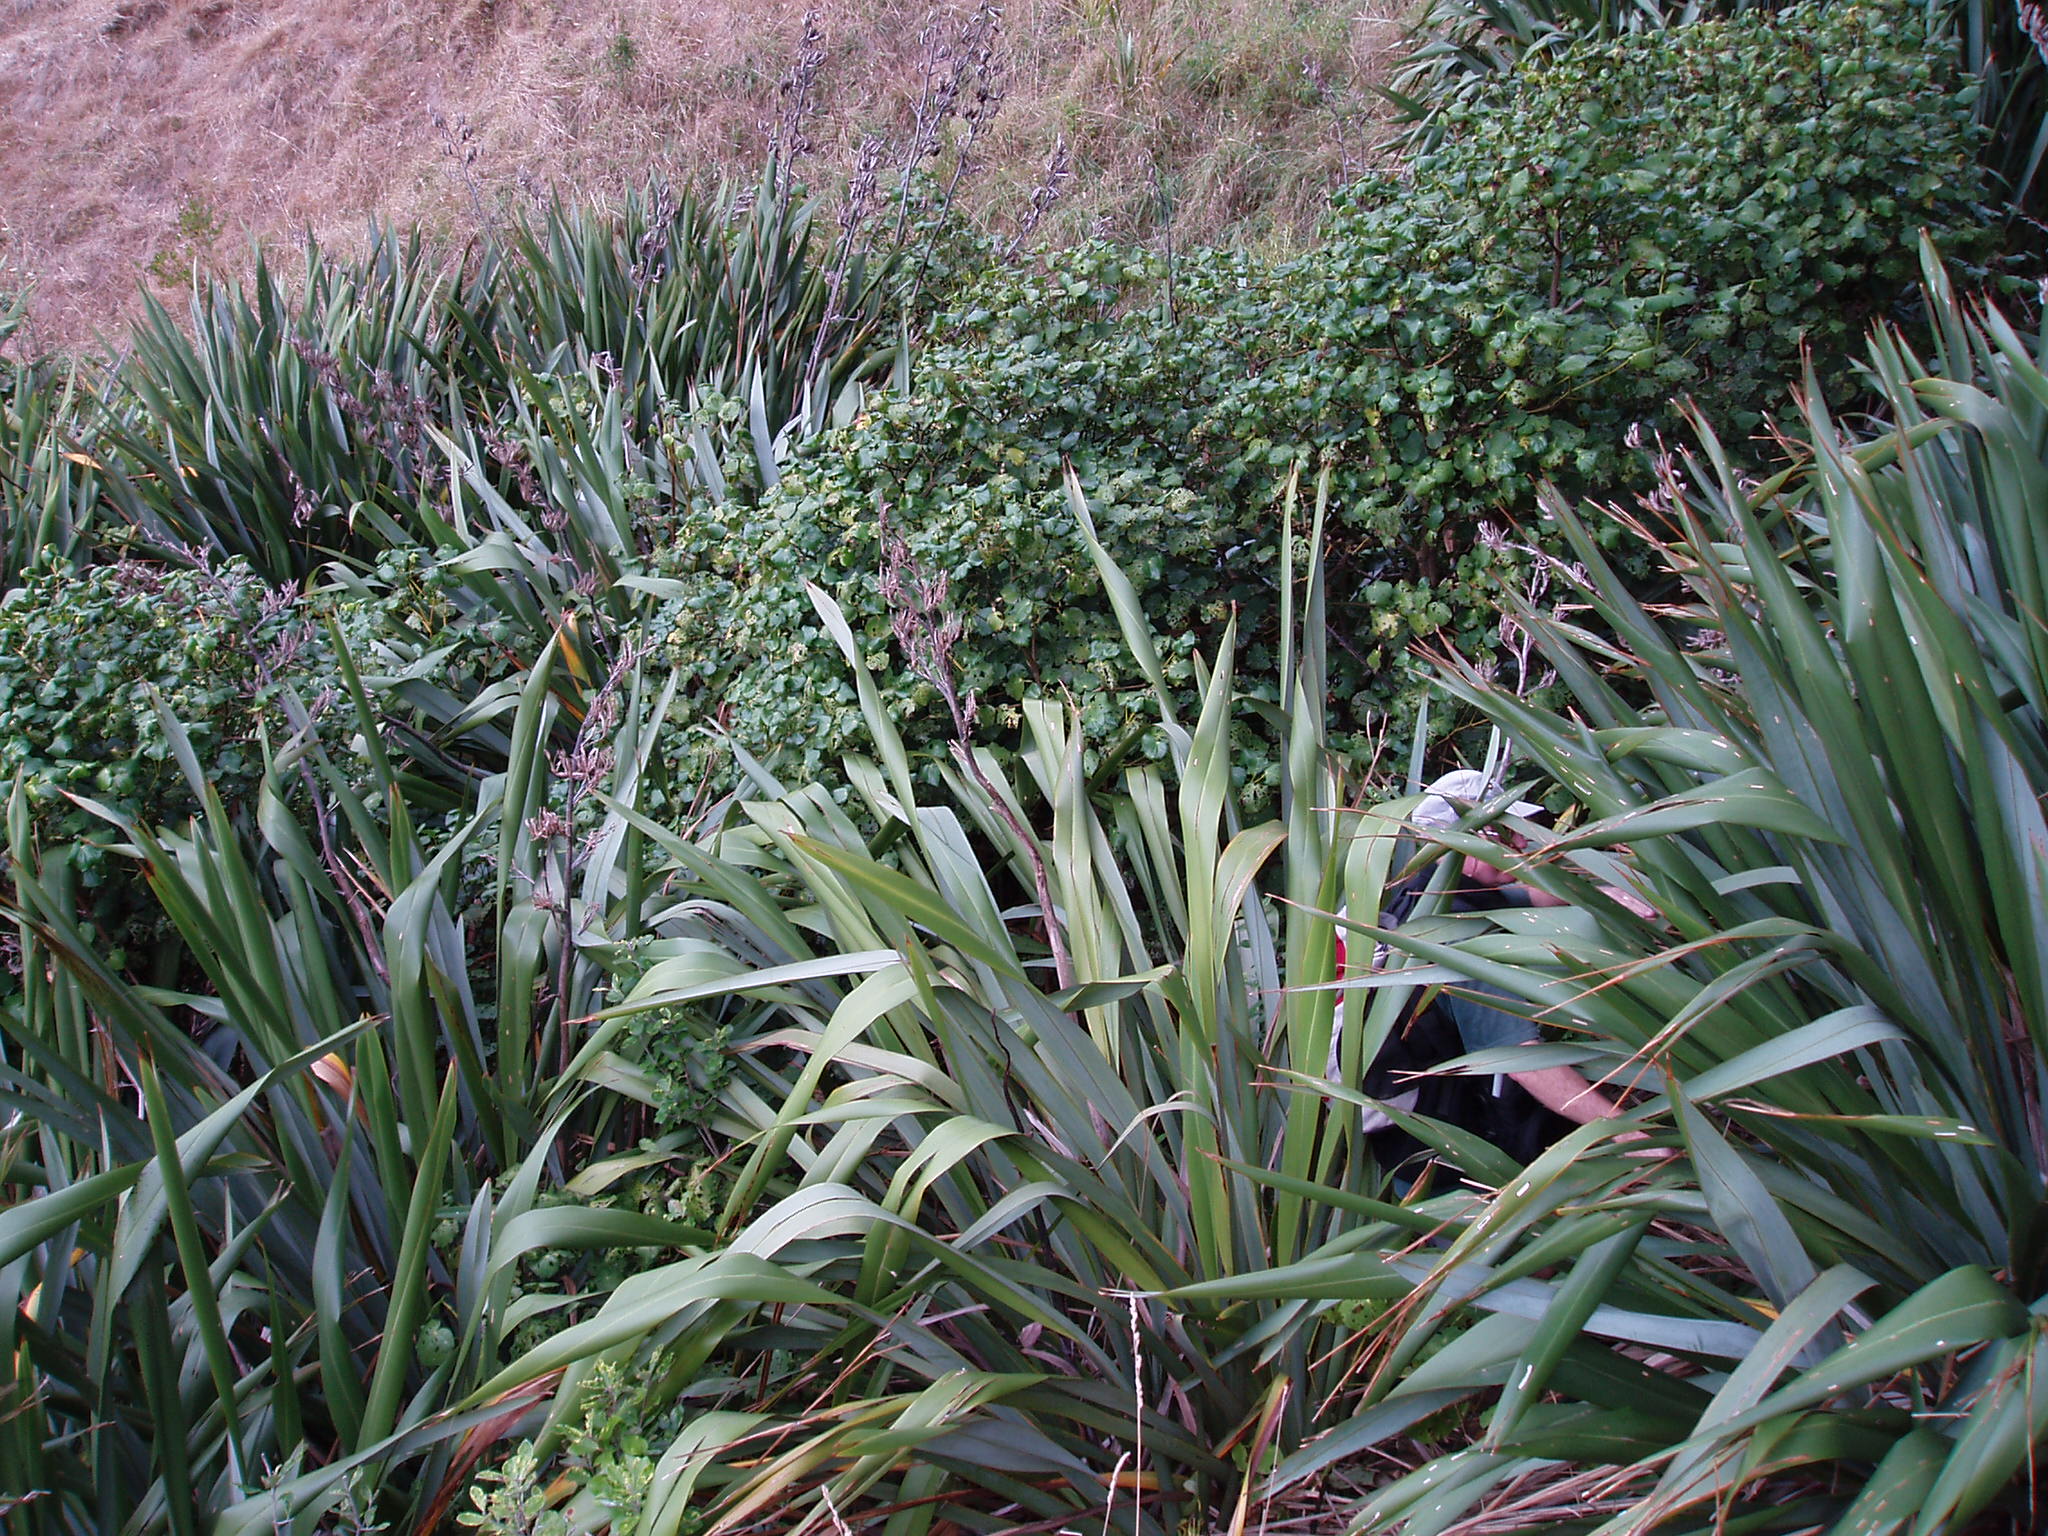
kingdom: Plantae
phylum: Tracheophyta
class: Magnoliopsida
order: Piperales
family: Piperaceae
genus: Macropiper
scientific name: Macropiper excelsum
